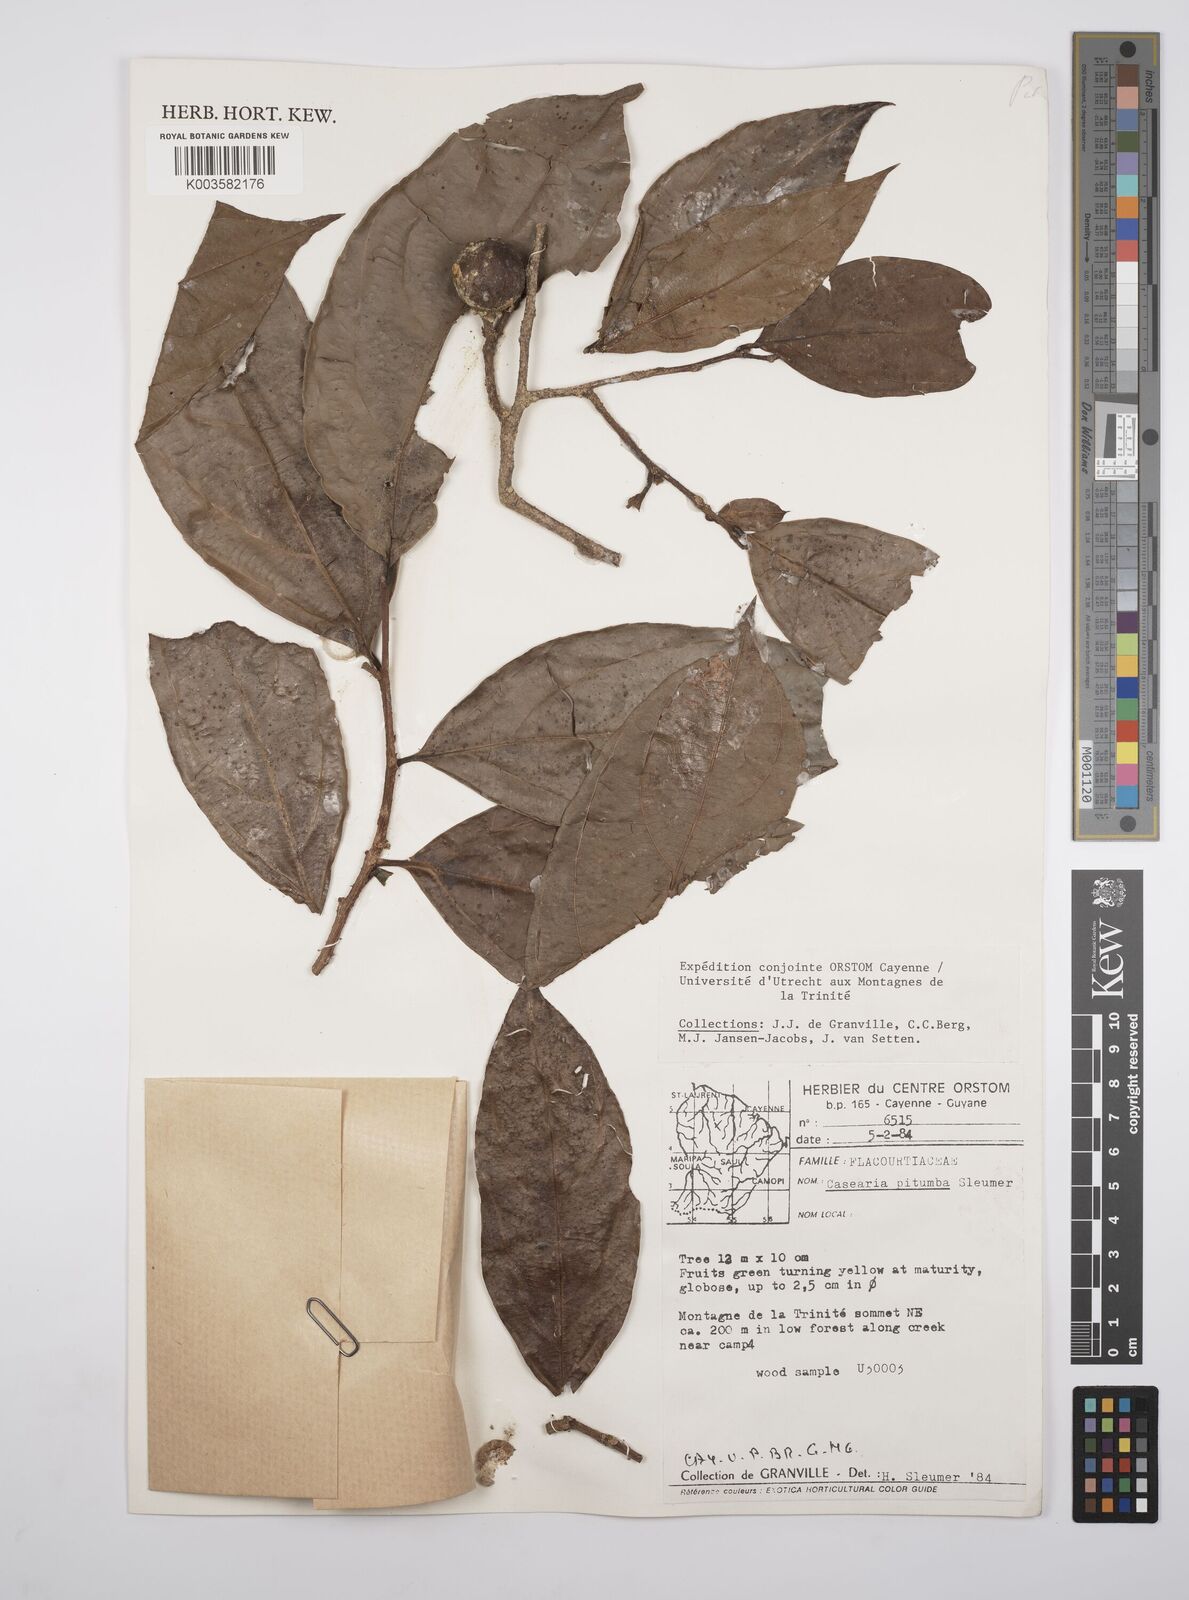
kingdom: Plantae
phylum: Tracheophyta
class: Magnoliopsida
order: Malpighiales
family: Salicaceae
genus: Casearia
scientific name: Casearia pitumba
